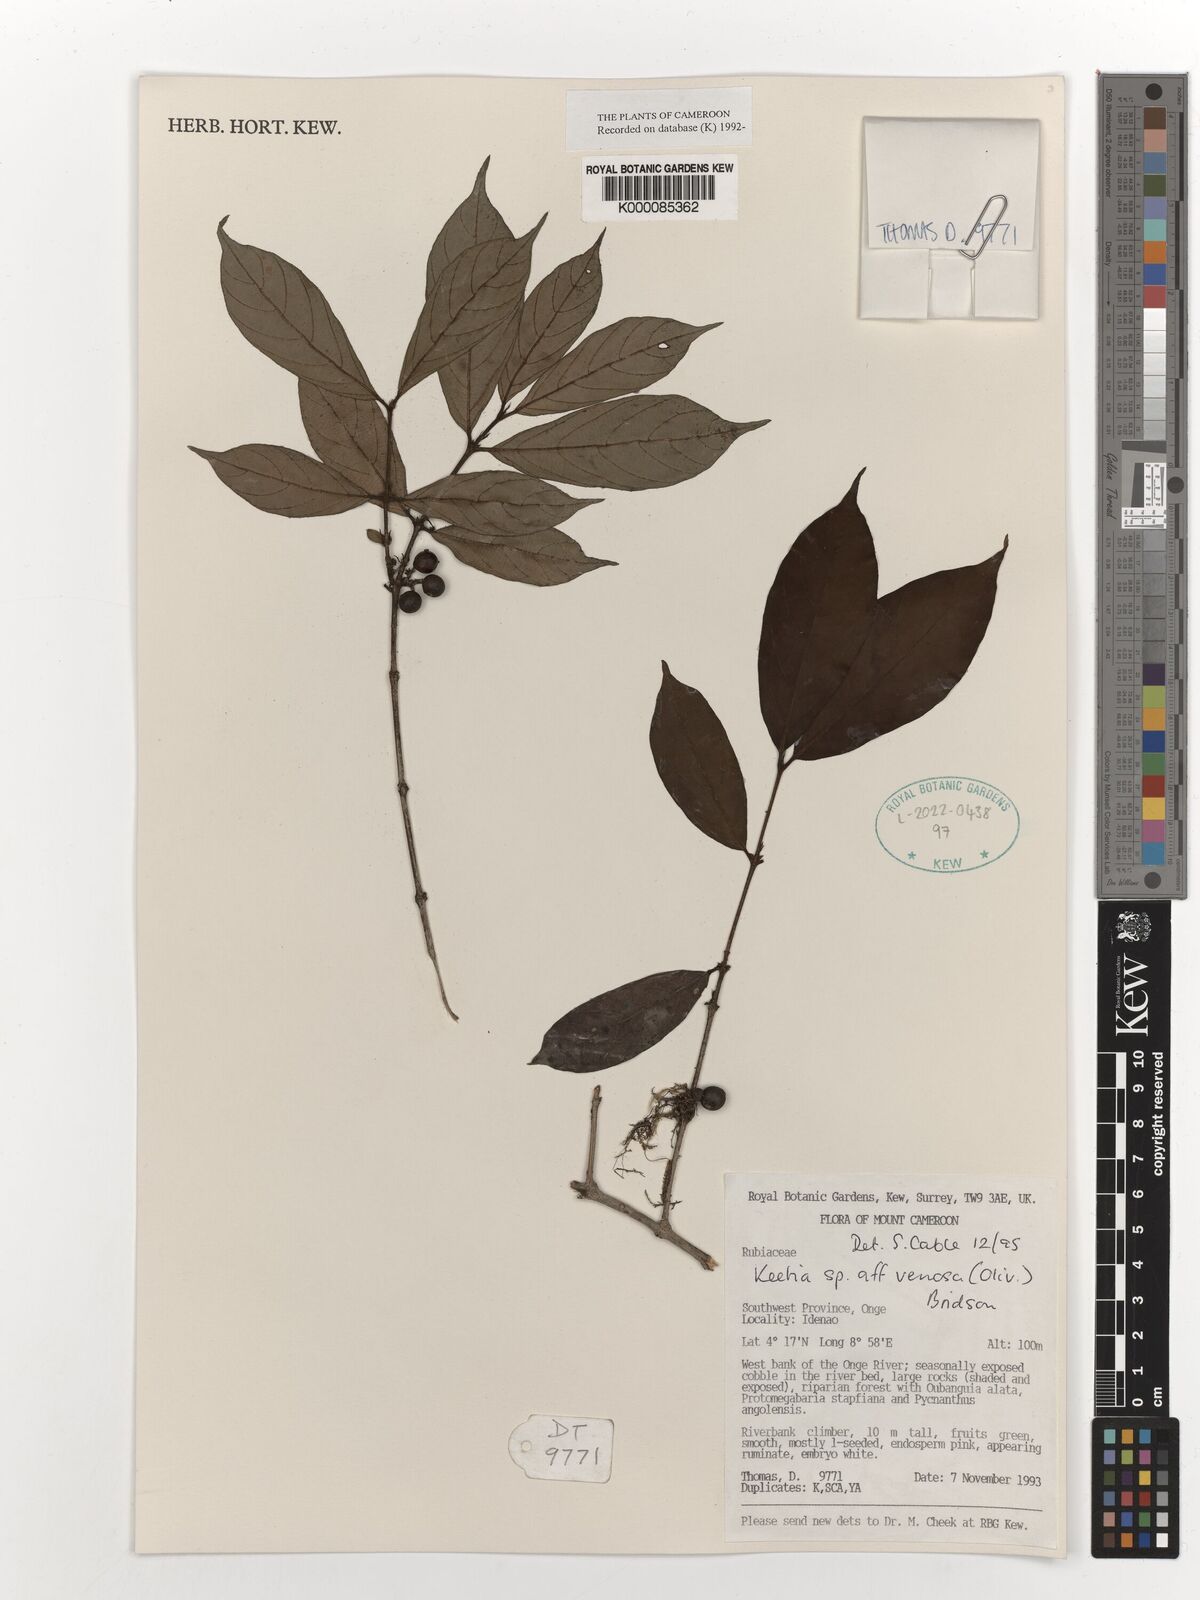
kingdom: Plantae
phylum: Tracheophyta
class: Magnoliopsida
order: Gentianales
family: Rubiaceae
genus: Keetia
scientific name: Keetia venosa
